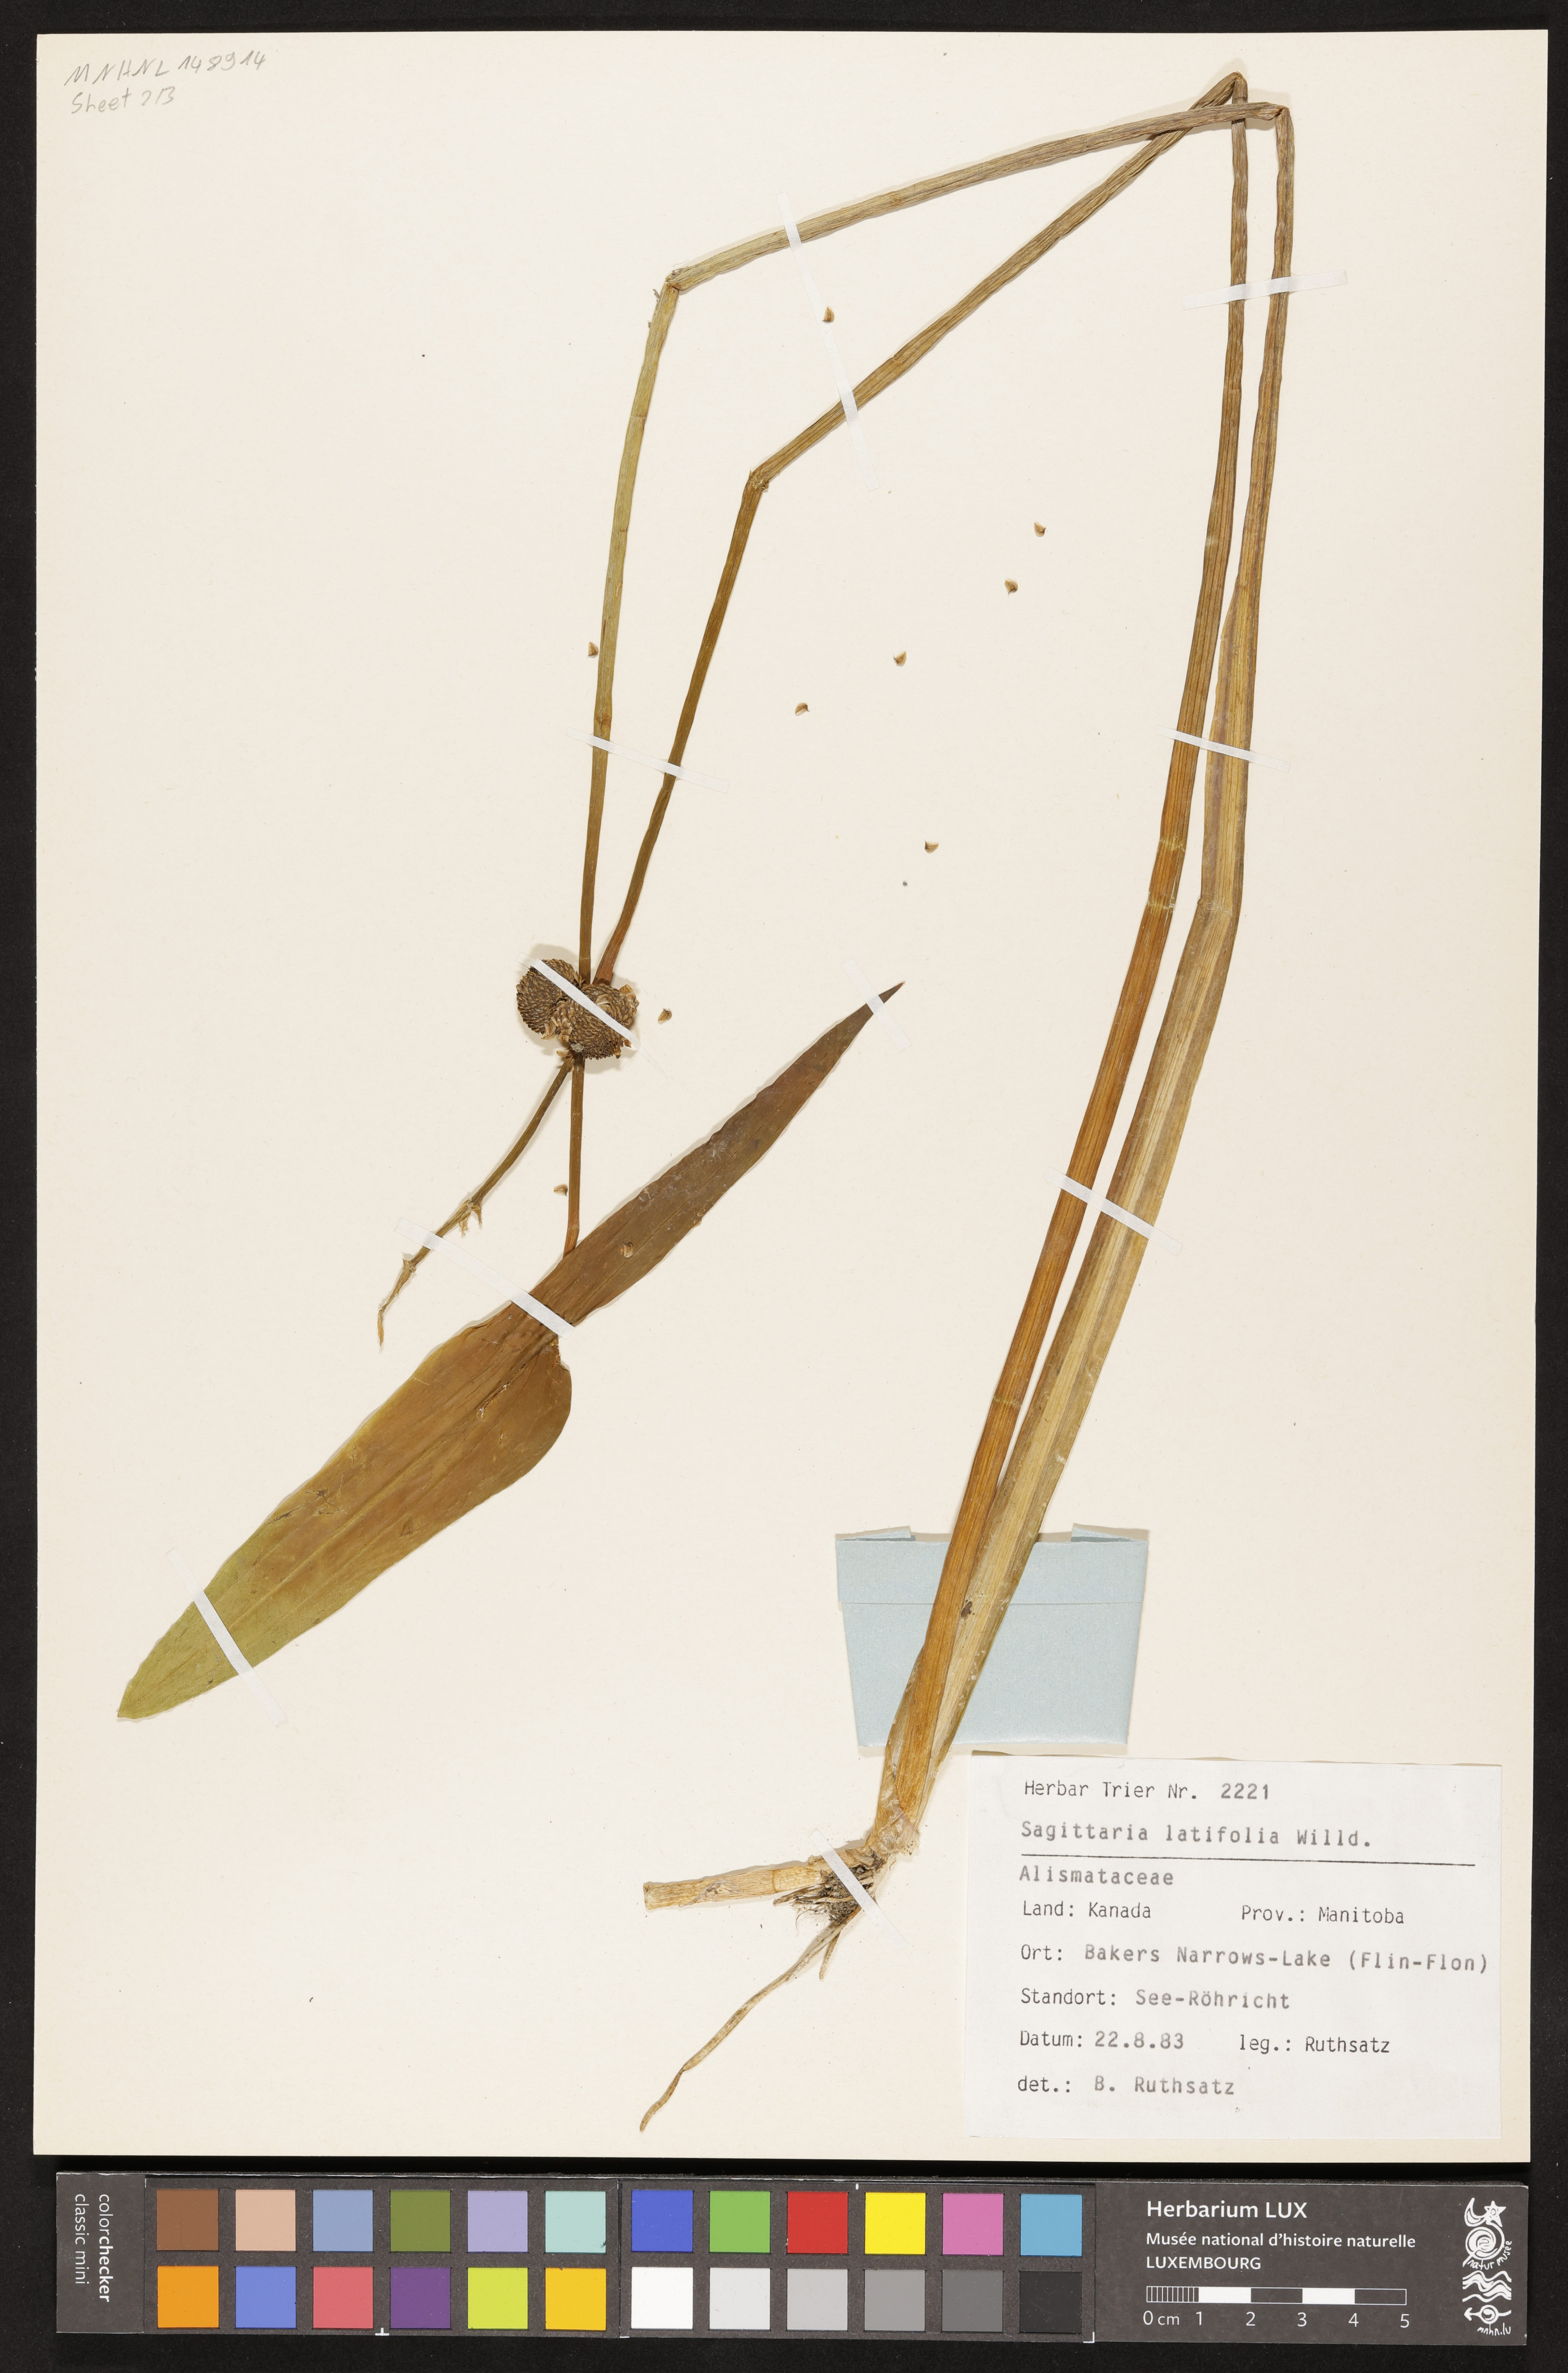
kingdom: Plantae
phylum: Tracheophyta
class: Liliopsida
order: Alismatales
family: Alismataceae
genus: Sagittaria
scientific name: Sagittaria latifolia
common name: Duck-potato
